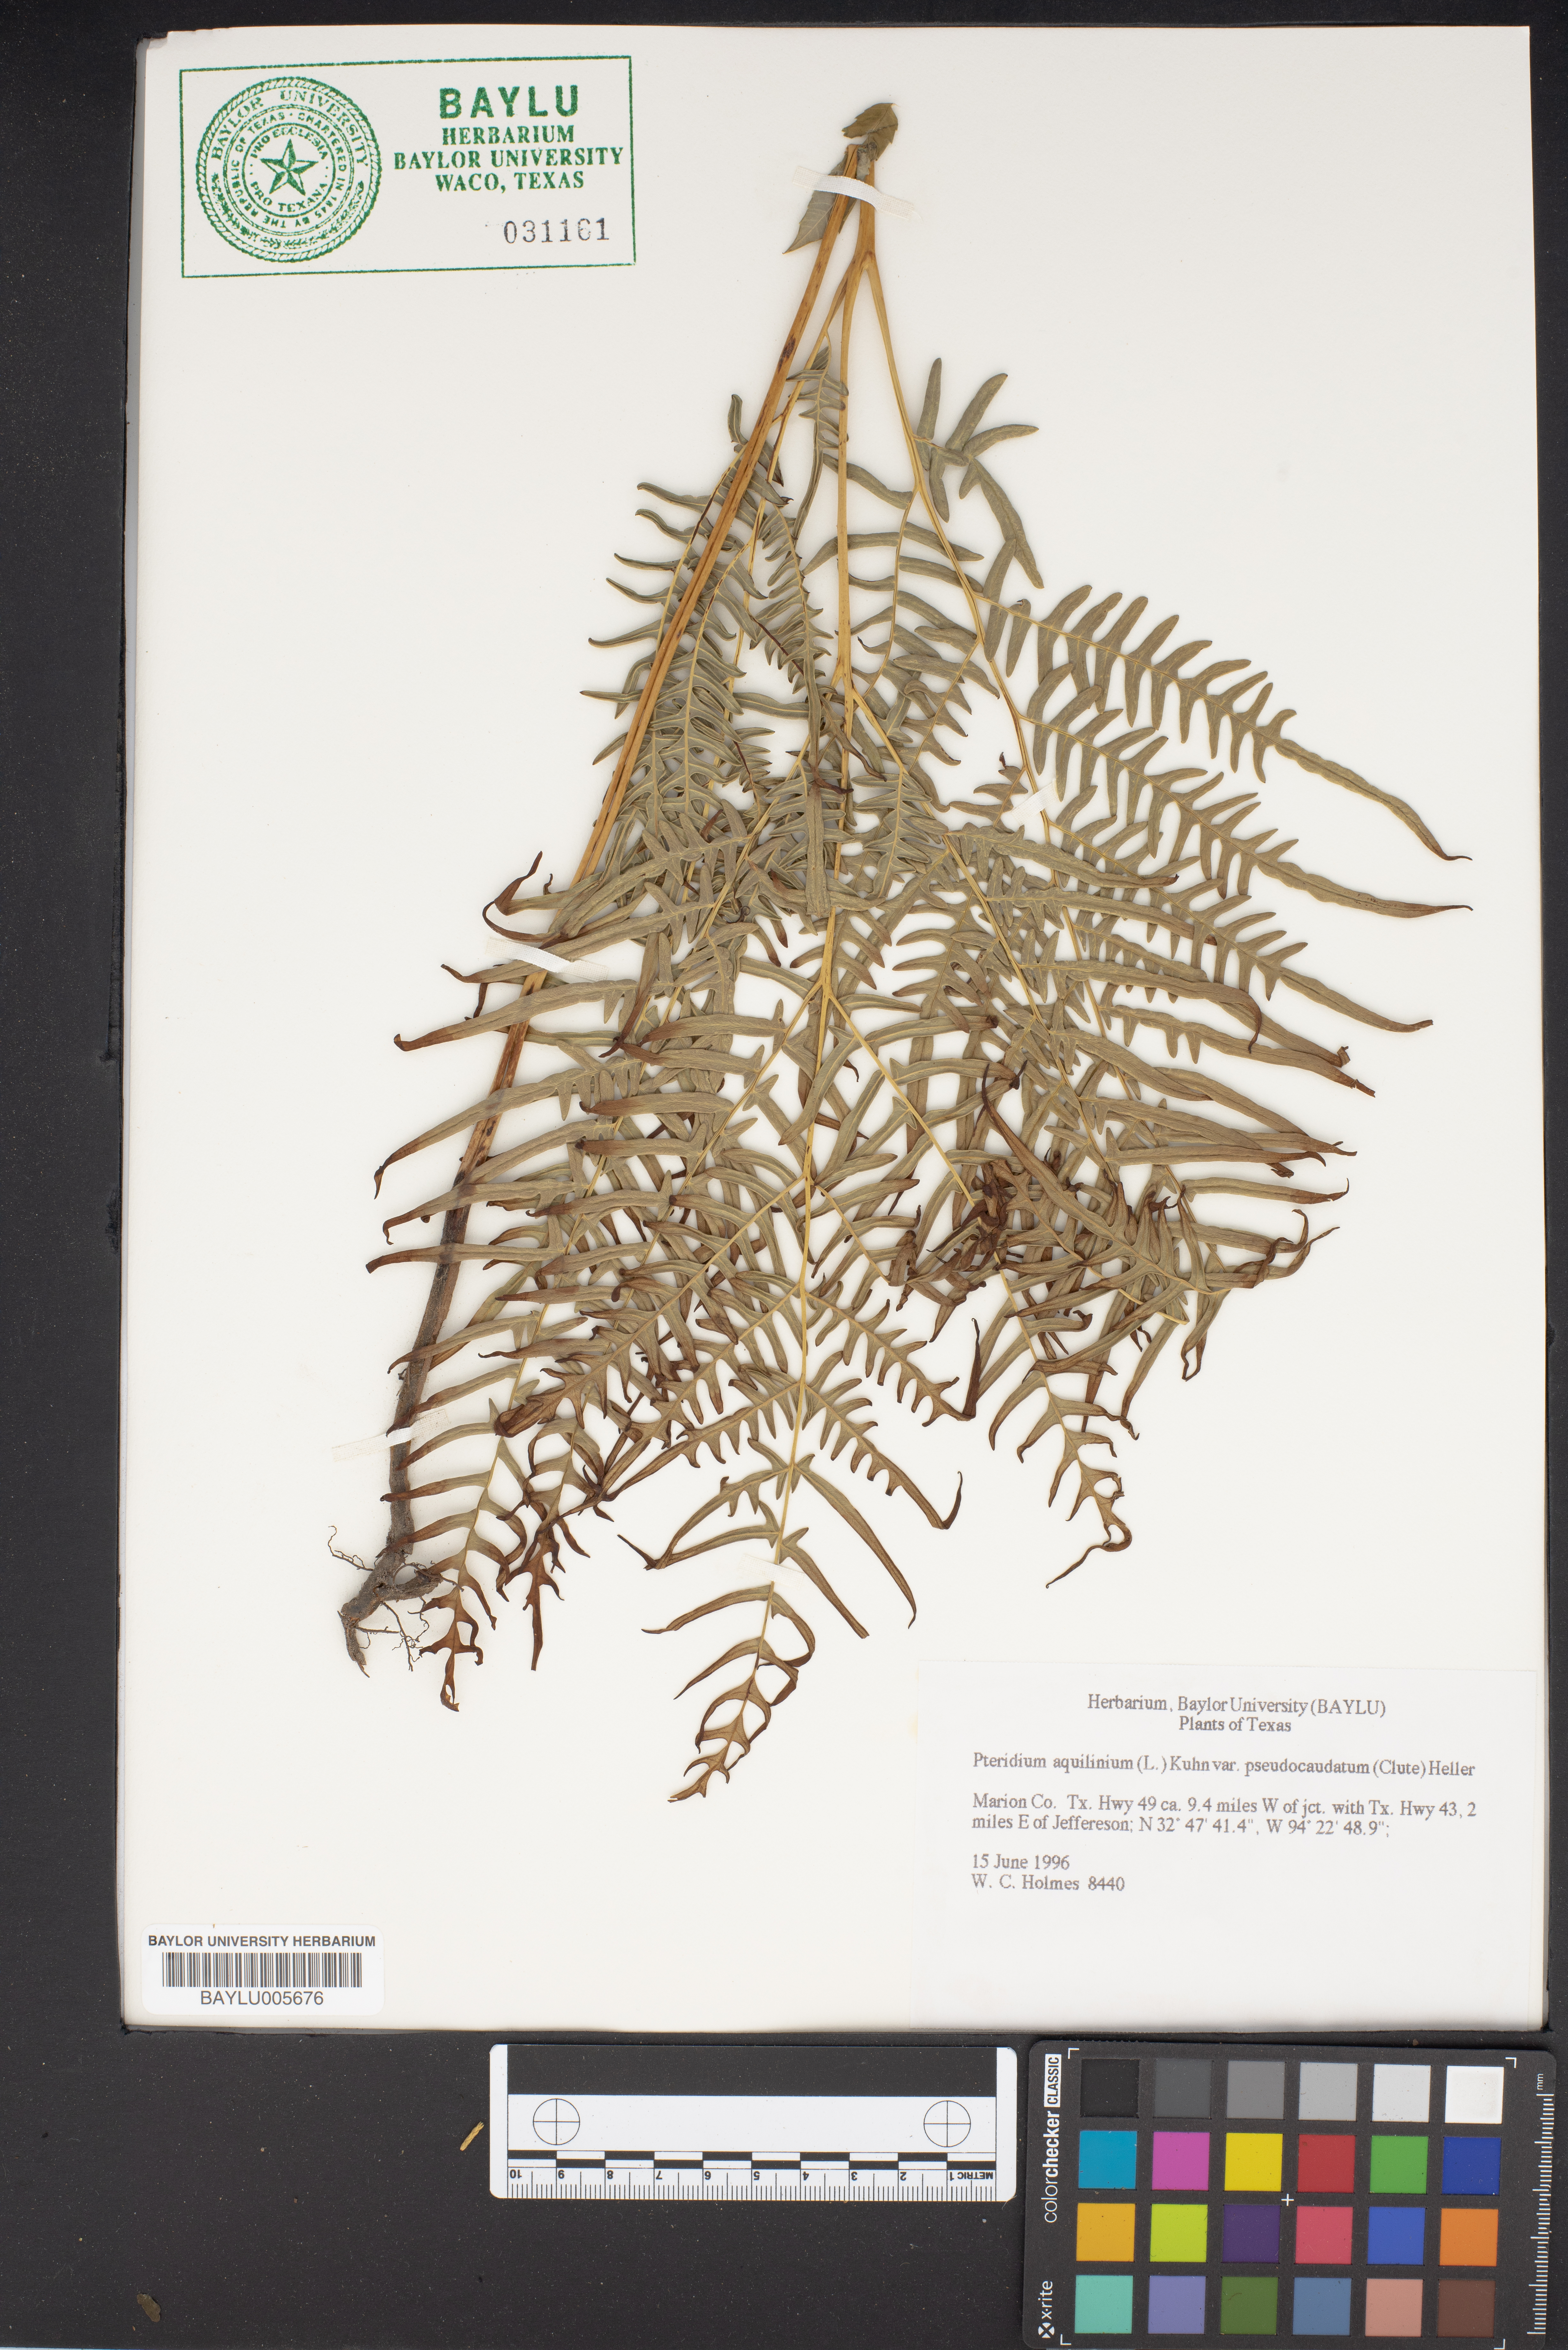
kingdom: Plantae
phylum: Tracheophyta
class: Polypodiopsida
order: Polypodiales
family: Dennstaedtiaceae
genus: Pteridium
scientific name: Pteridium aquilinum
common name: Bracken
